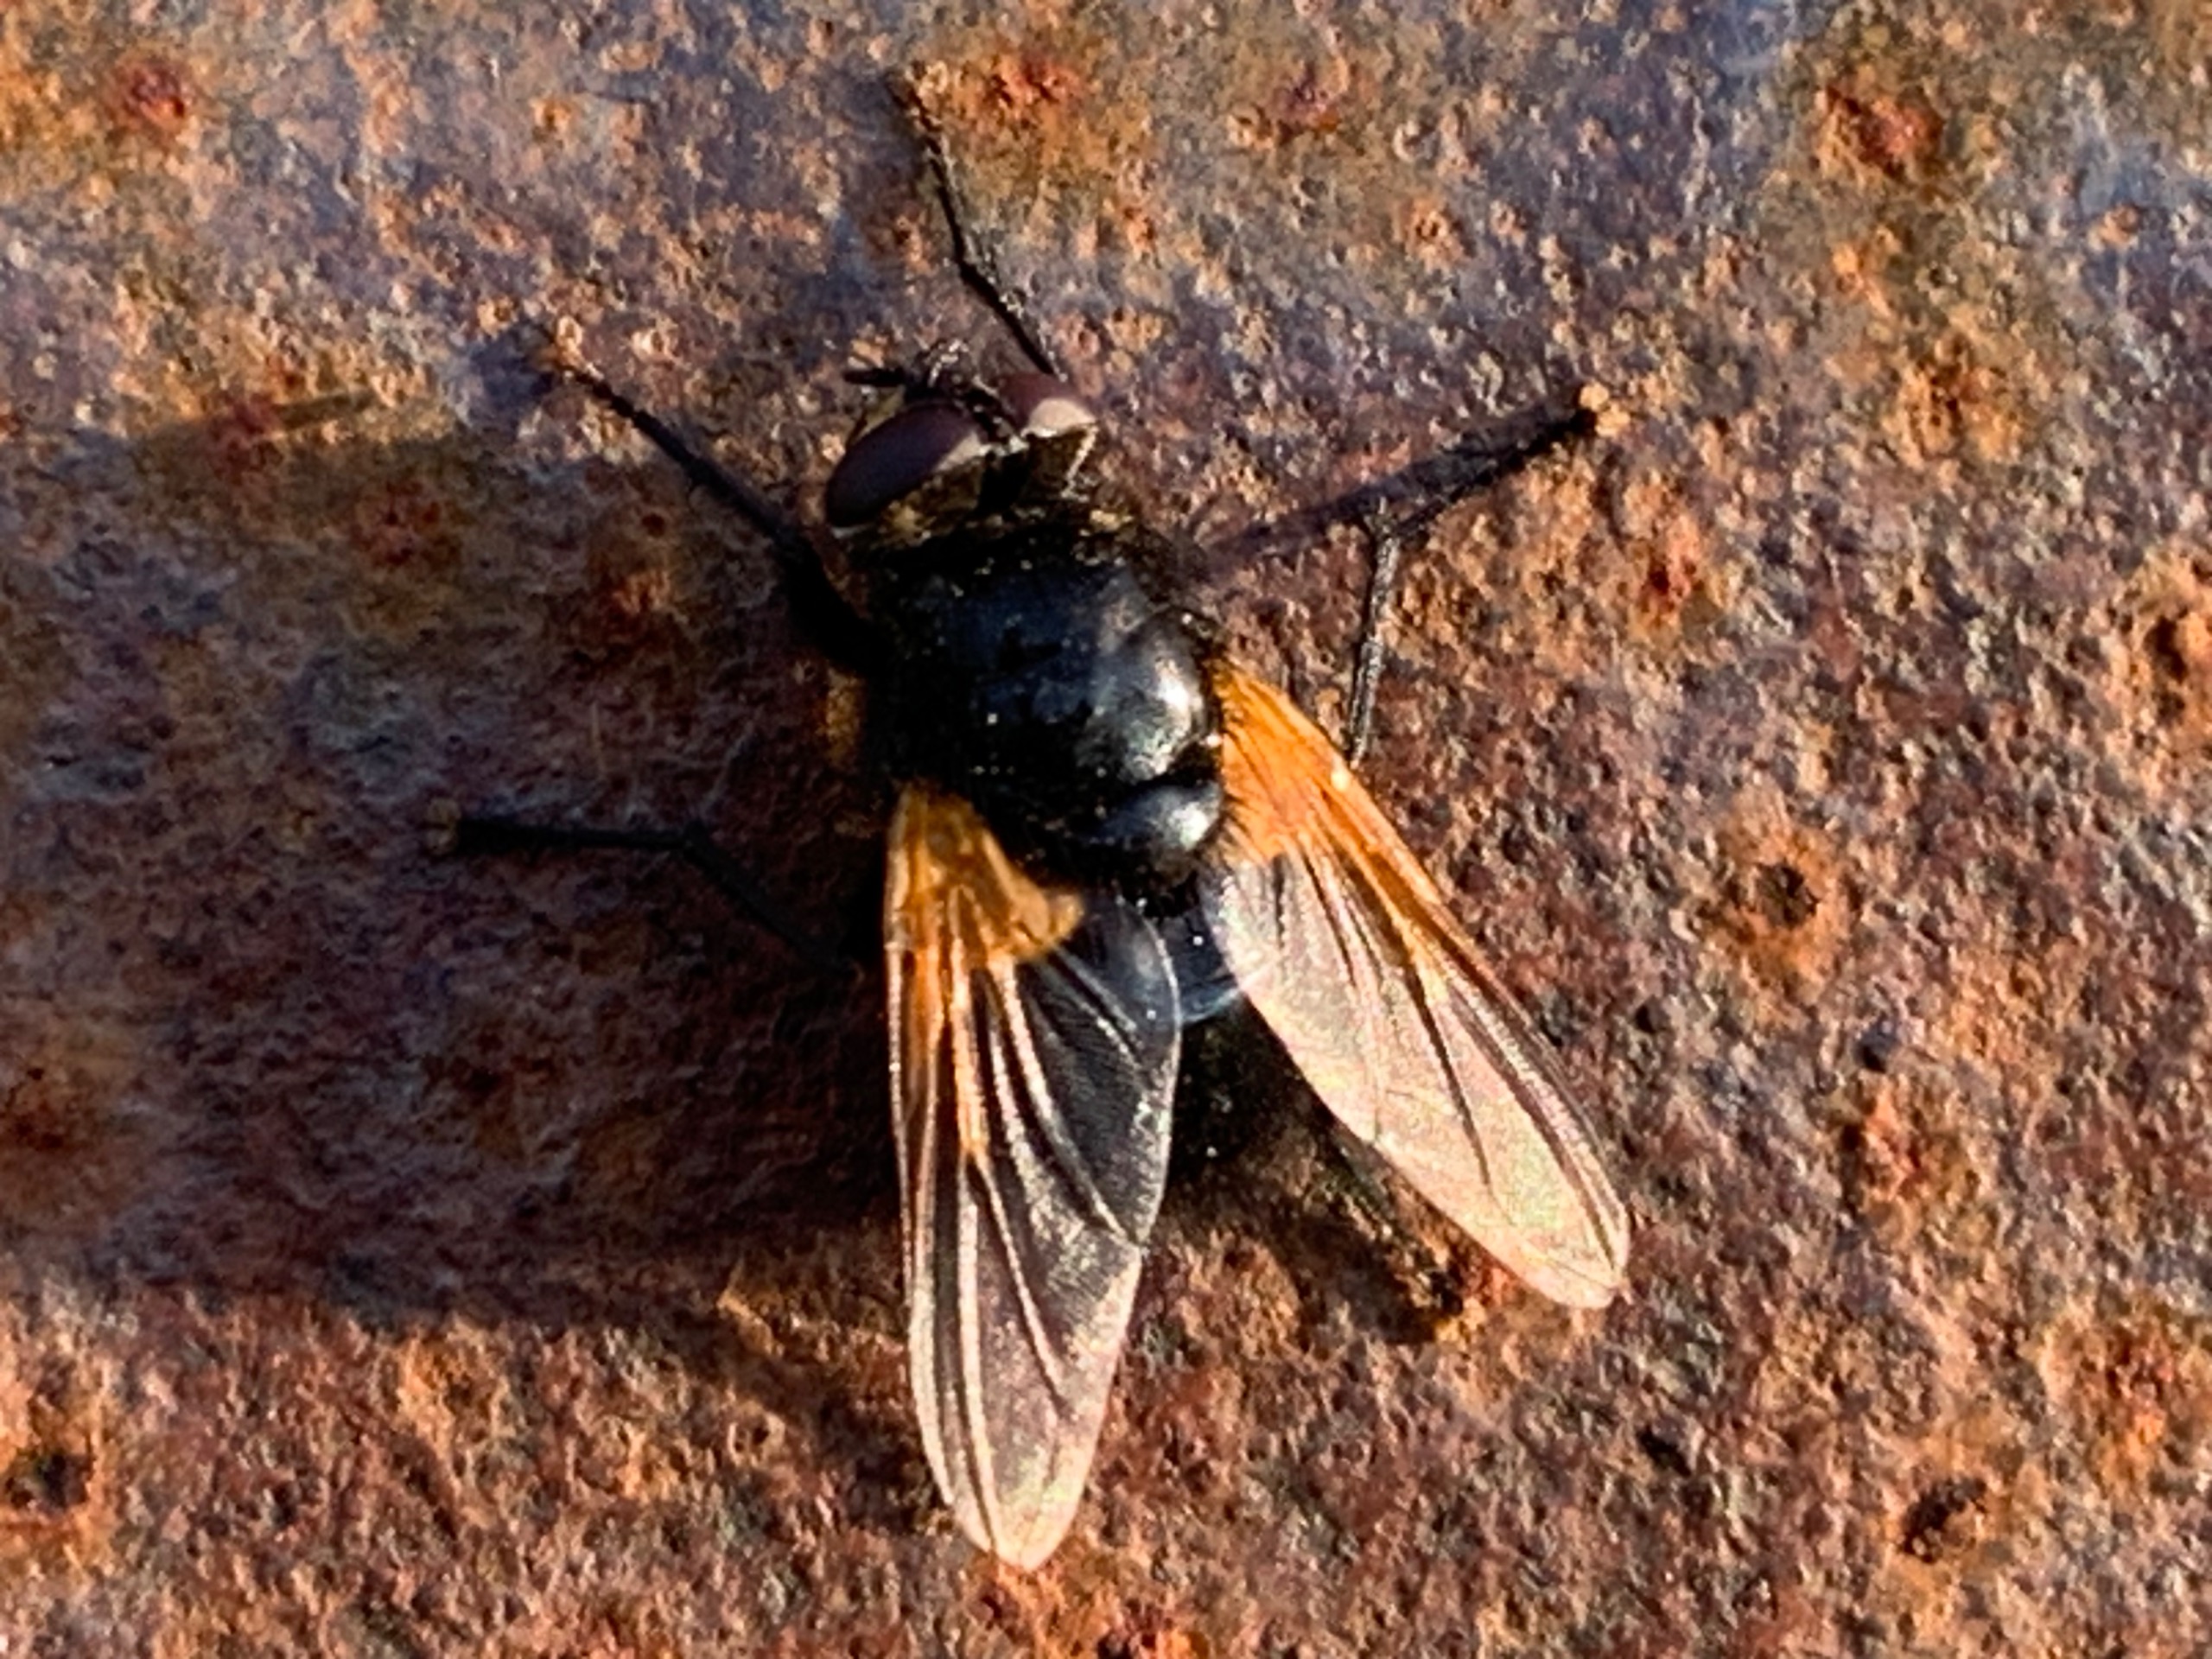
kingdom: Animalia
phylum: Arthropoda
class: Insecta
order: Diptera
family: Muscidae
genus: Mesembrina
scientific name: Mesembrina meridiana
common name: Gulvinget flue
